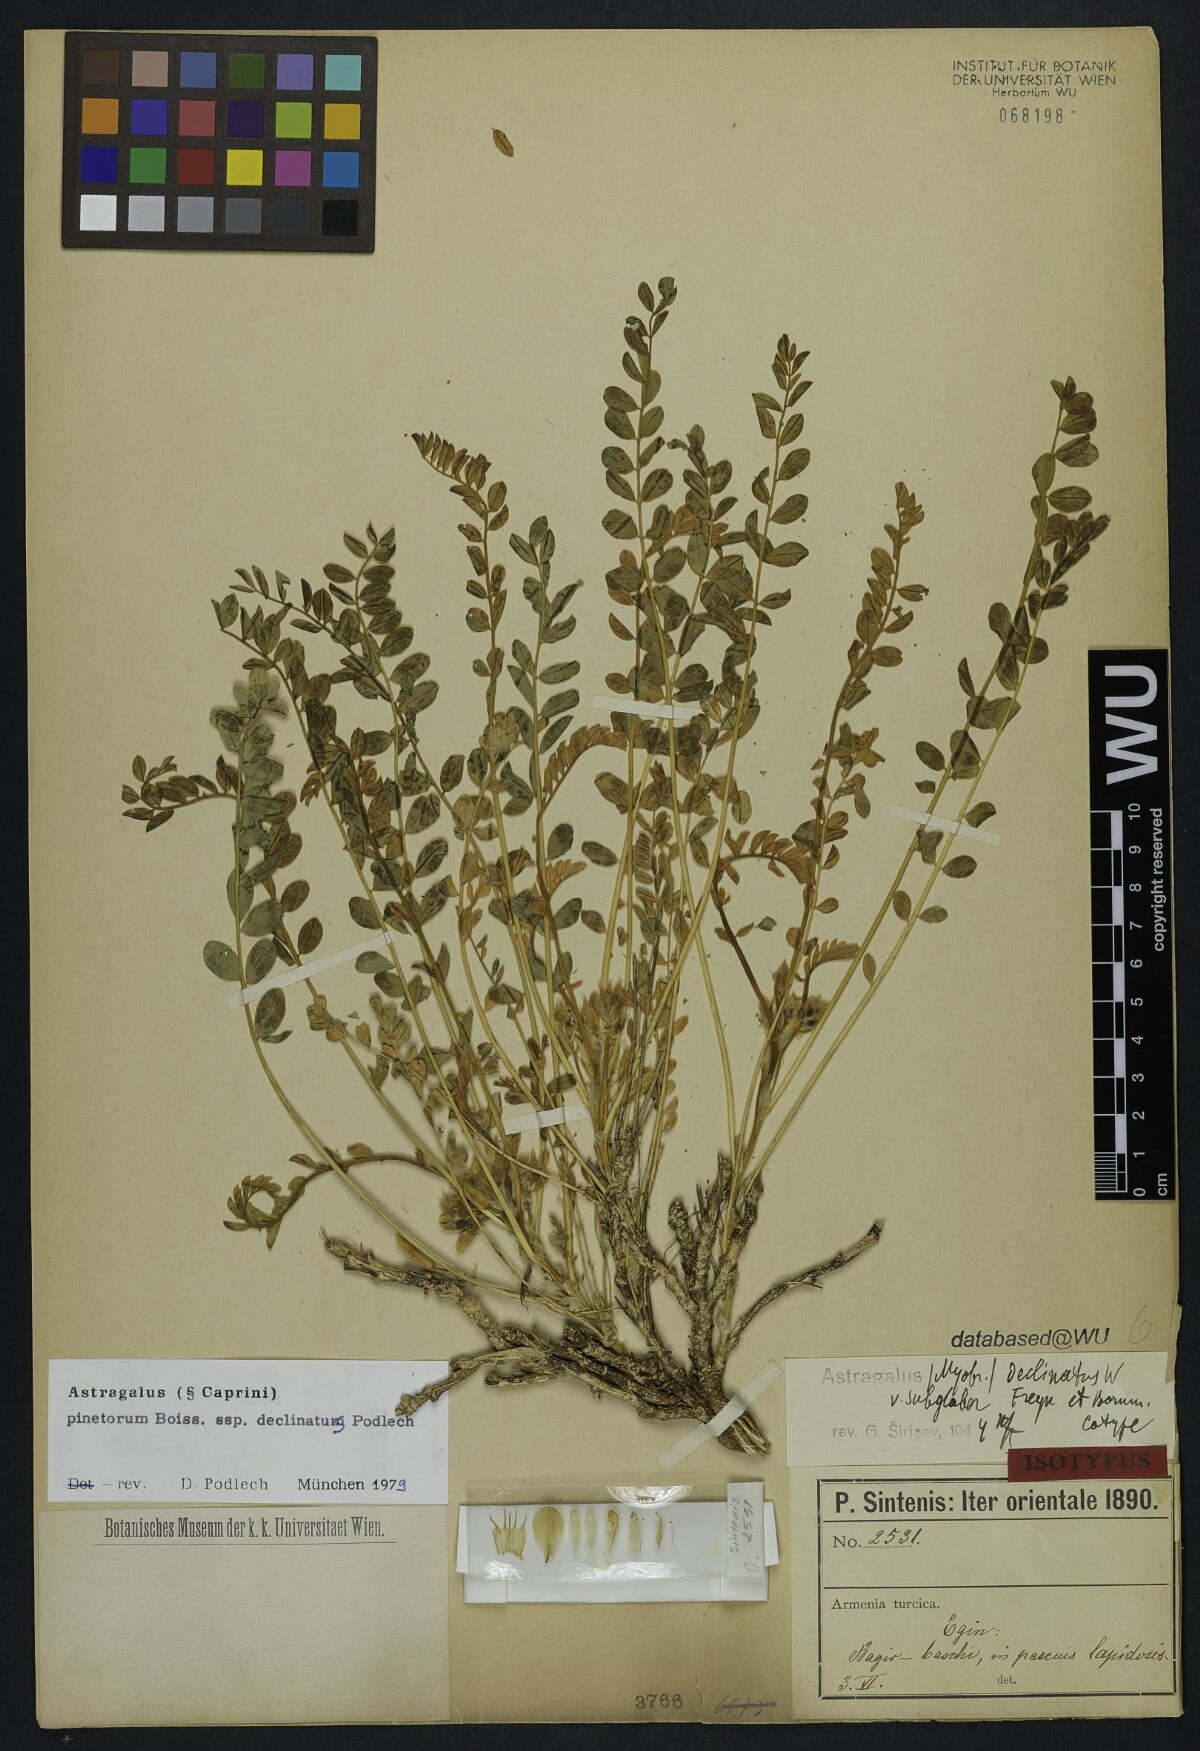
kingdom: Plantae
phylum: Tracheophyta
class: Magnoliopsida
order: Fabales
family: Fabaceae
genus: Astragalus
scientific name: Astragalus pinetorum
